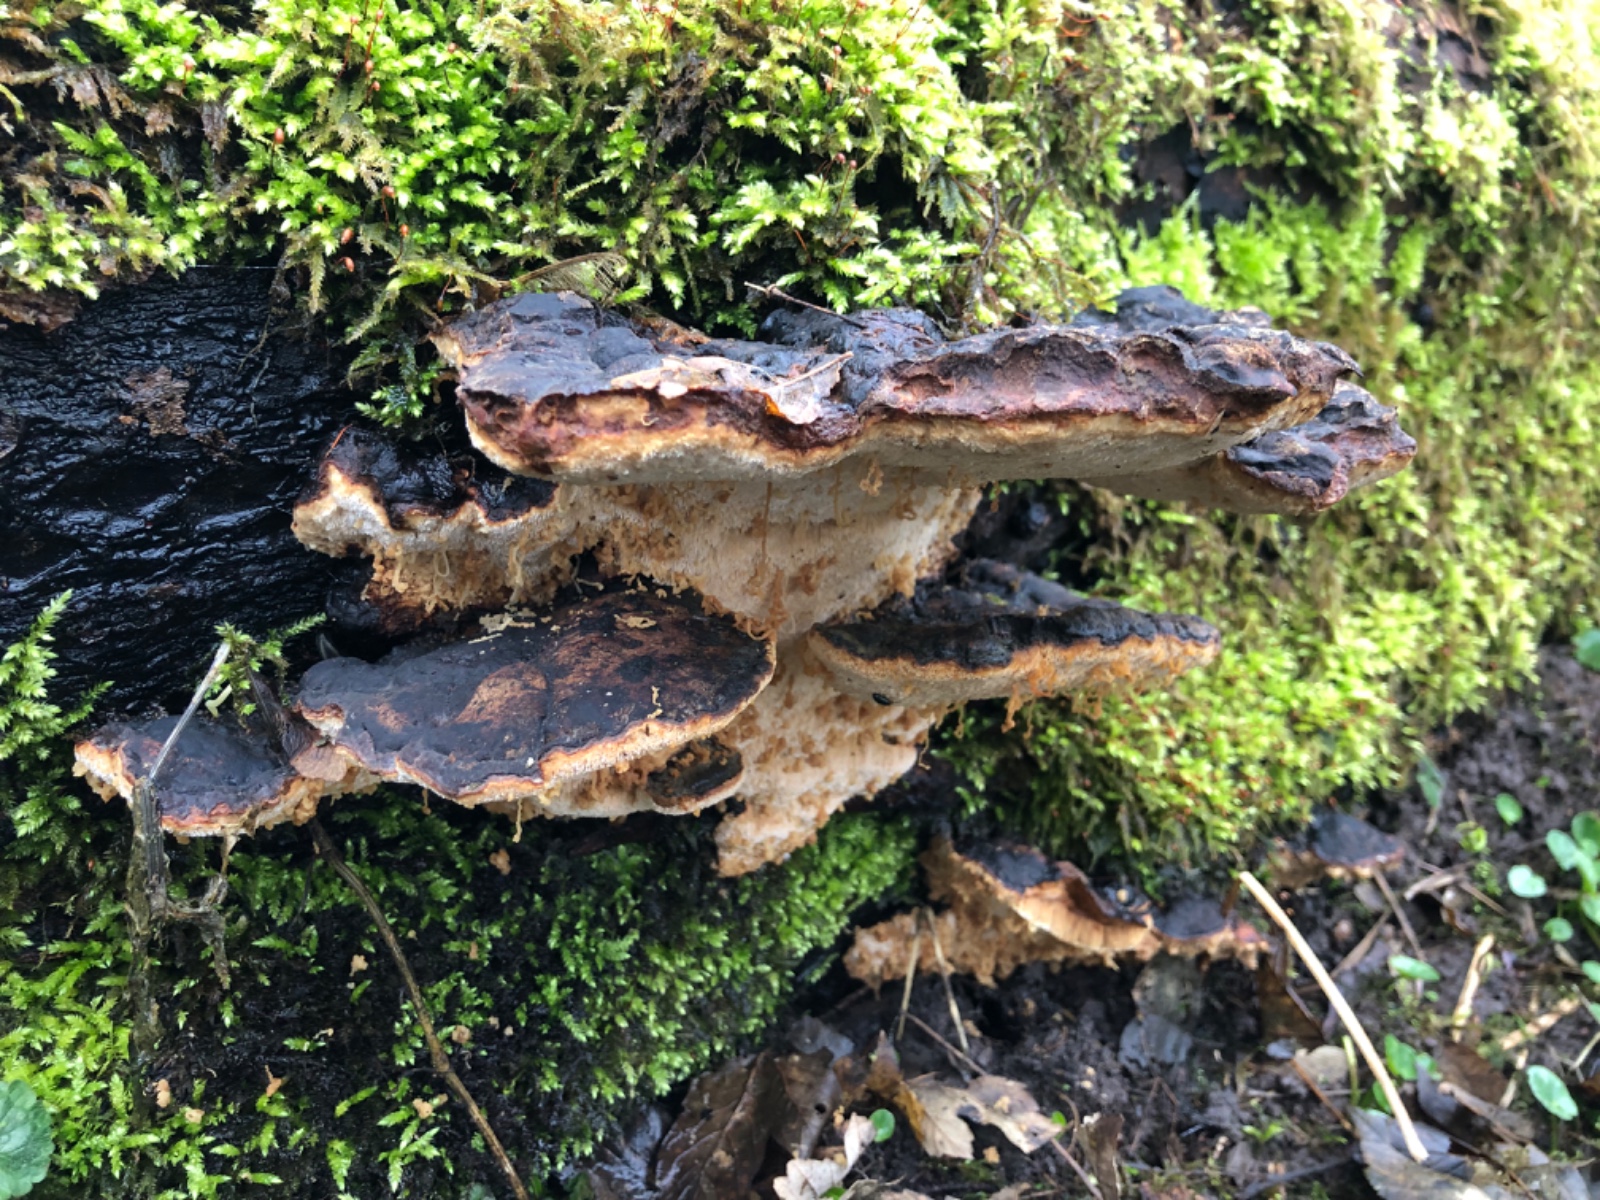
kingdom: Fungi
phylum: Basidiomycota
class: Agaricomycetes
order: Polyporales
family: Ischnodermataceae
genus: Ischnoderma
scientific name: Ischnoderma resinosum
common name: løv-tjæreporesvamp
